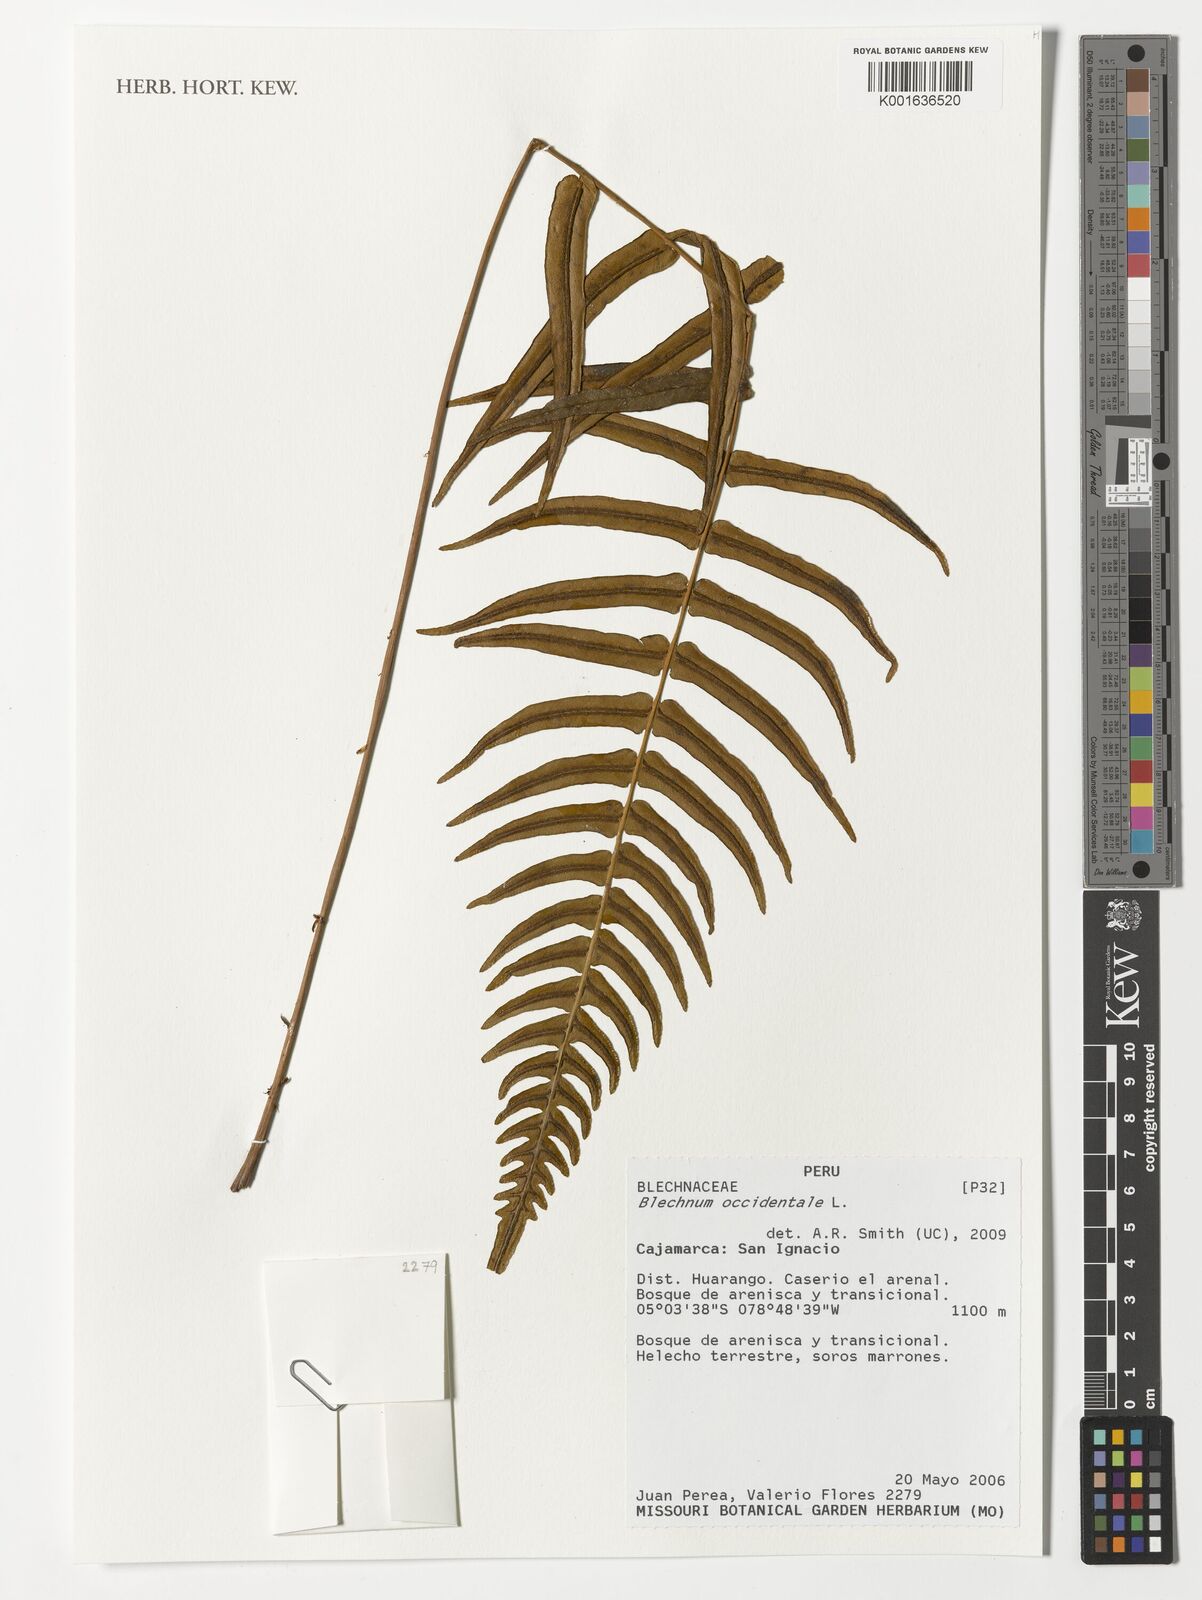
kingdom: Plantae
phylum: Tracheophyta
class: Polypodiopsida
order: Polypodiales
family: Blechnaceae
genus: Blechnum
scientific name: Blechnum occidentale
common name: Hammock fern
